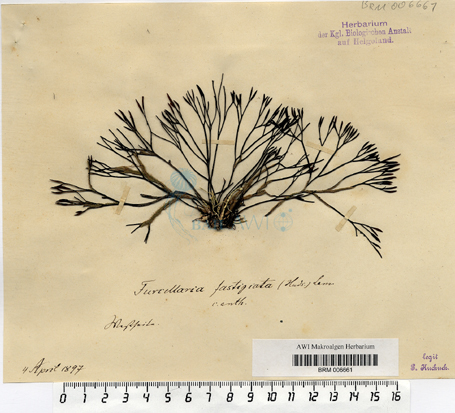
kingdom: Plantae
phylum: Rhodophyta
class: Florideophyceae
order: Gigartinales
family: Furcellariaceae
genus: Furcellaria
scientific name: Furcellaria lumbricalis
